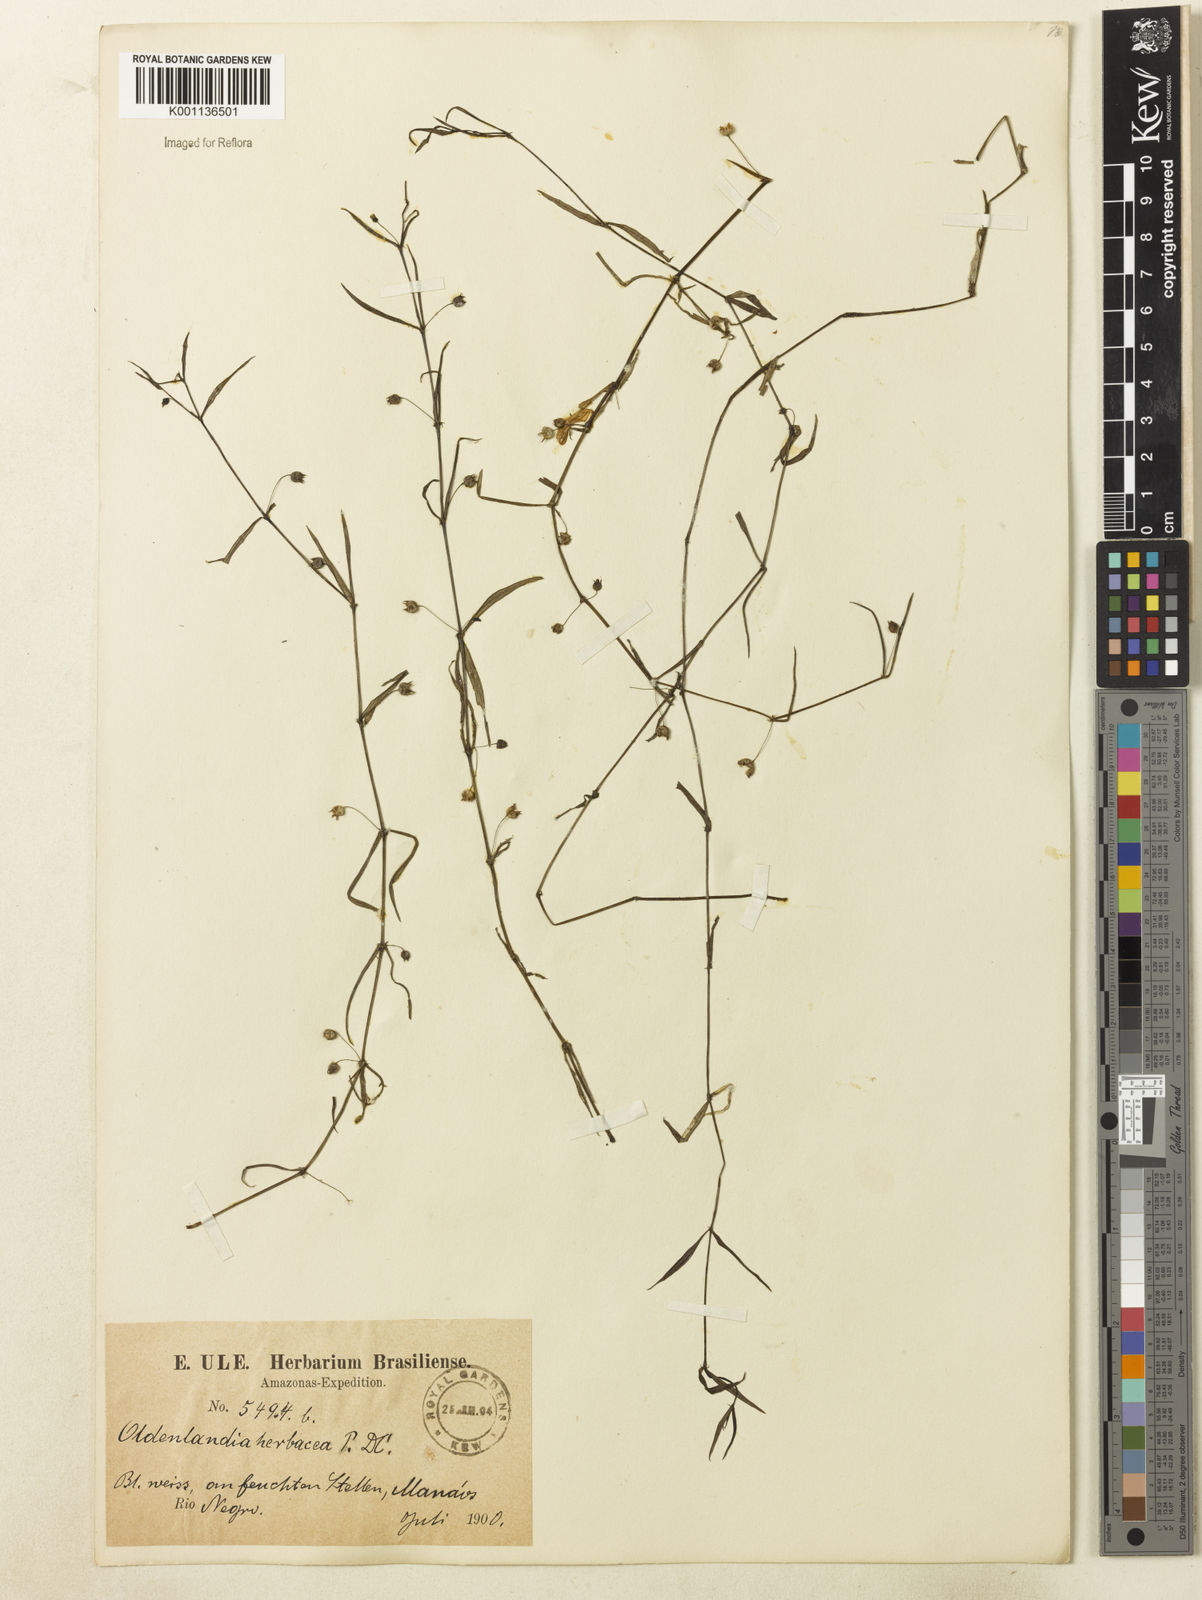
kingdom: Plantae
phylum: Tracheophyta
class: Magnoliopsida
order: Gentianales
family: Rubiaceae
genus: Oldenlandia
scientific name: Oldenlandia lancifolia
